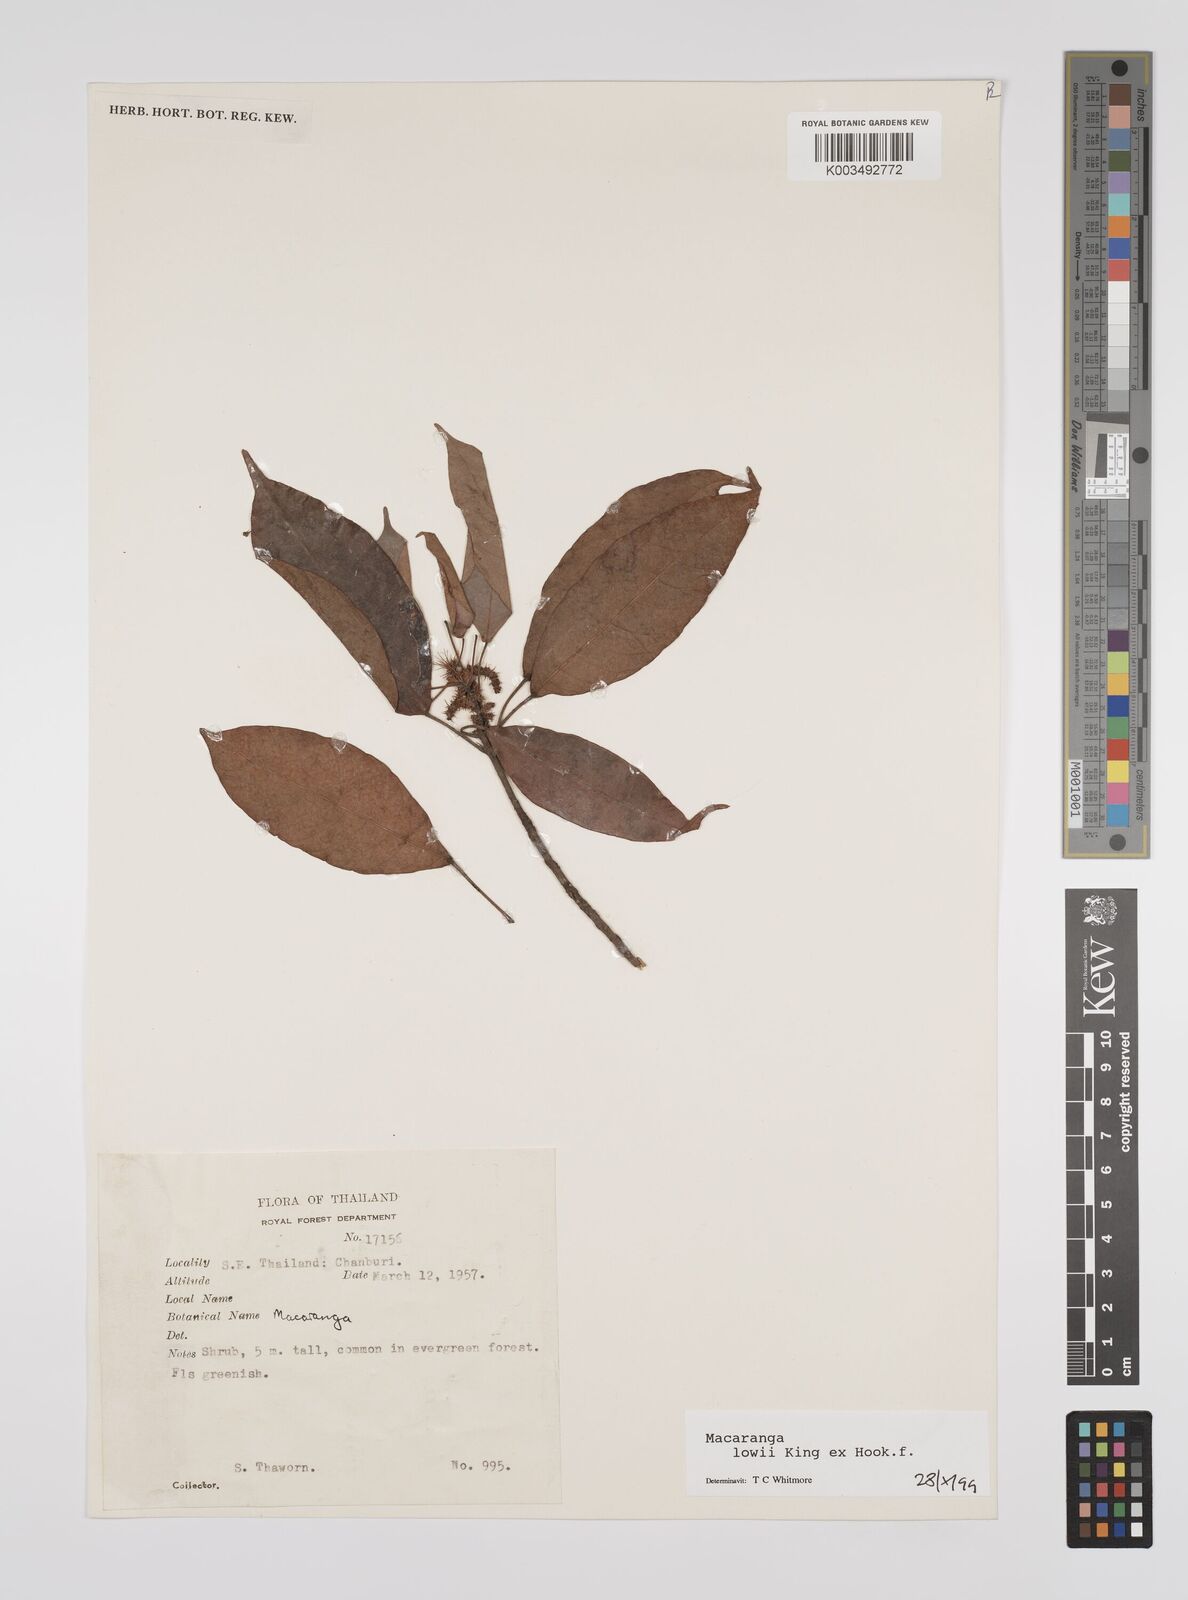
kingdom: Plantae
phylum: Tracheophyta
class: Magnoliopsida
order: Malpighiales
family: Euphorbiaceae
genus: Macaranga
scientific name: Macaranga lowii
